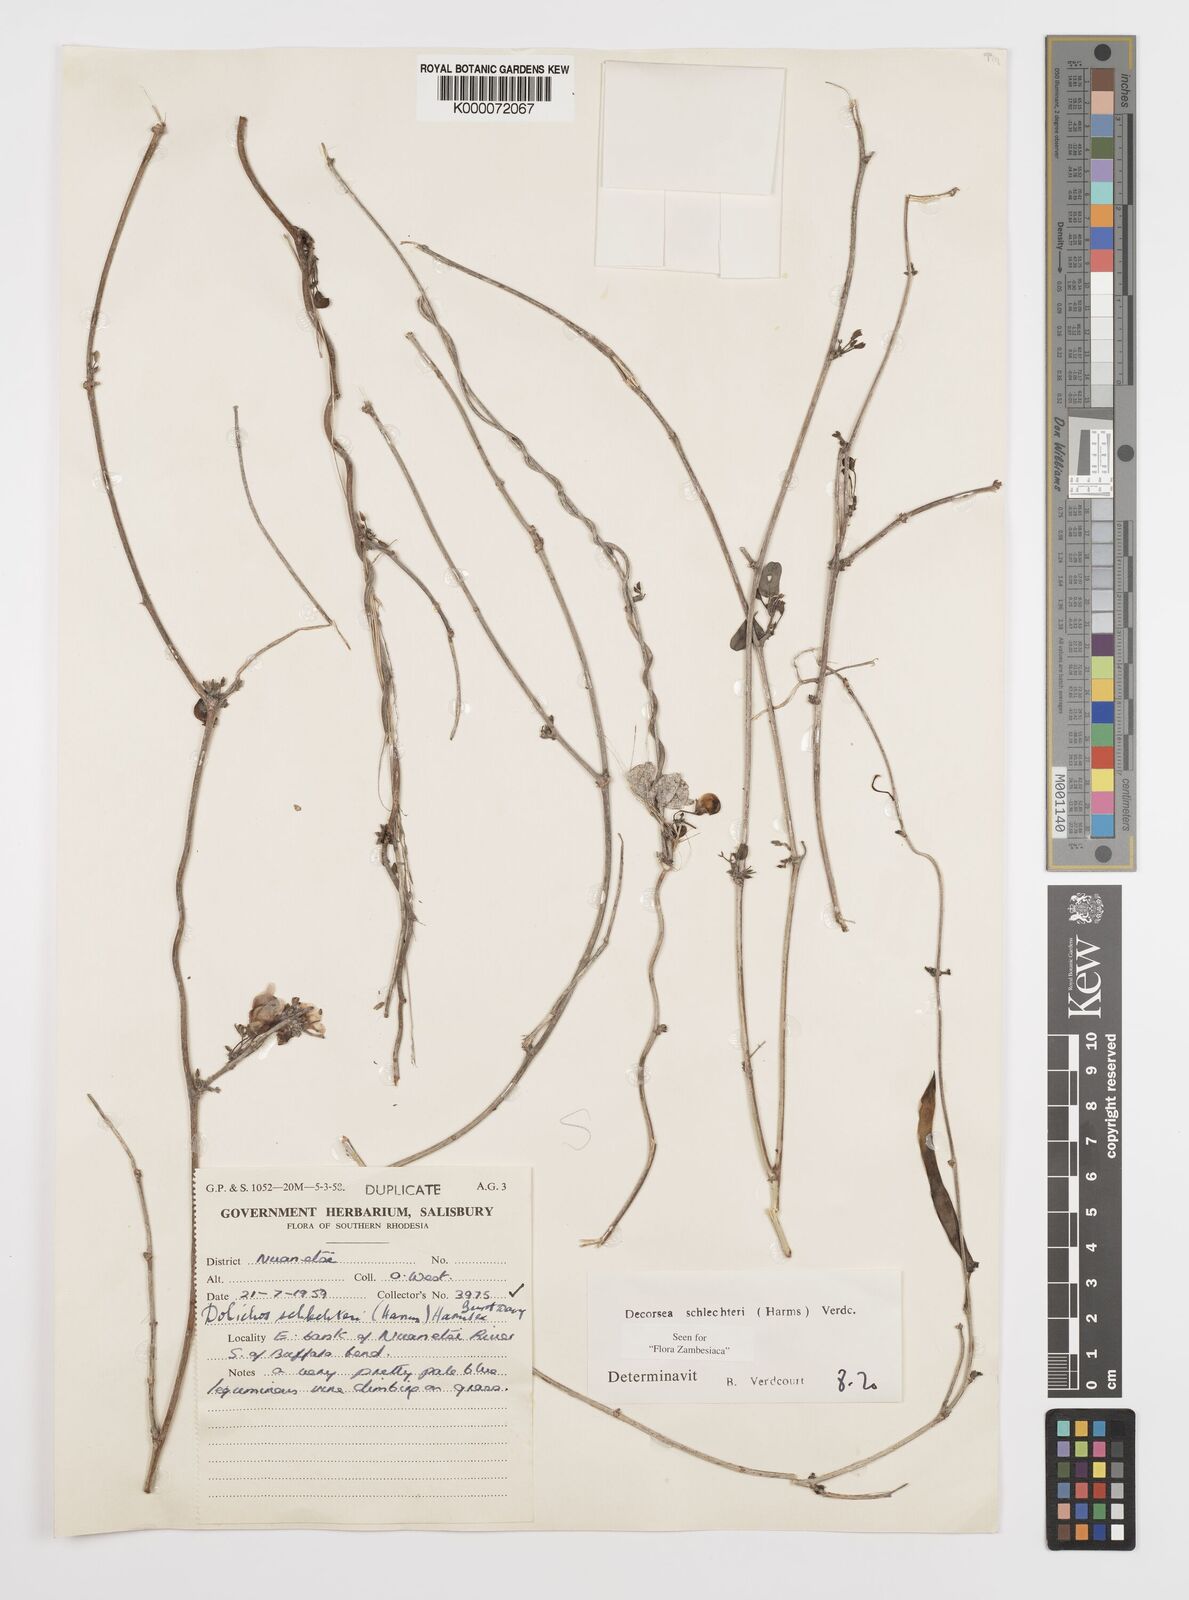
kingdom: Plantae
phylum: Tracheophyta
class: Magnoliopsida
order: Fabales
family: Fabaceae
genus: Decorsea
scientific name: Decorsea schlechteri
